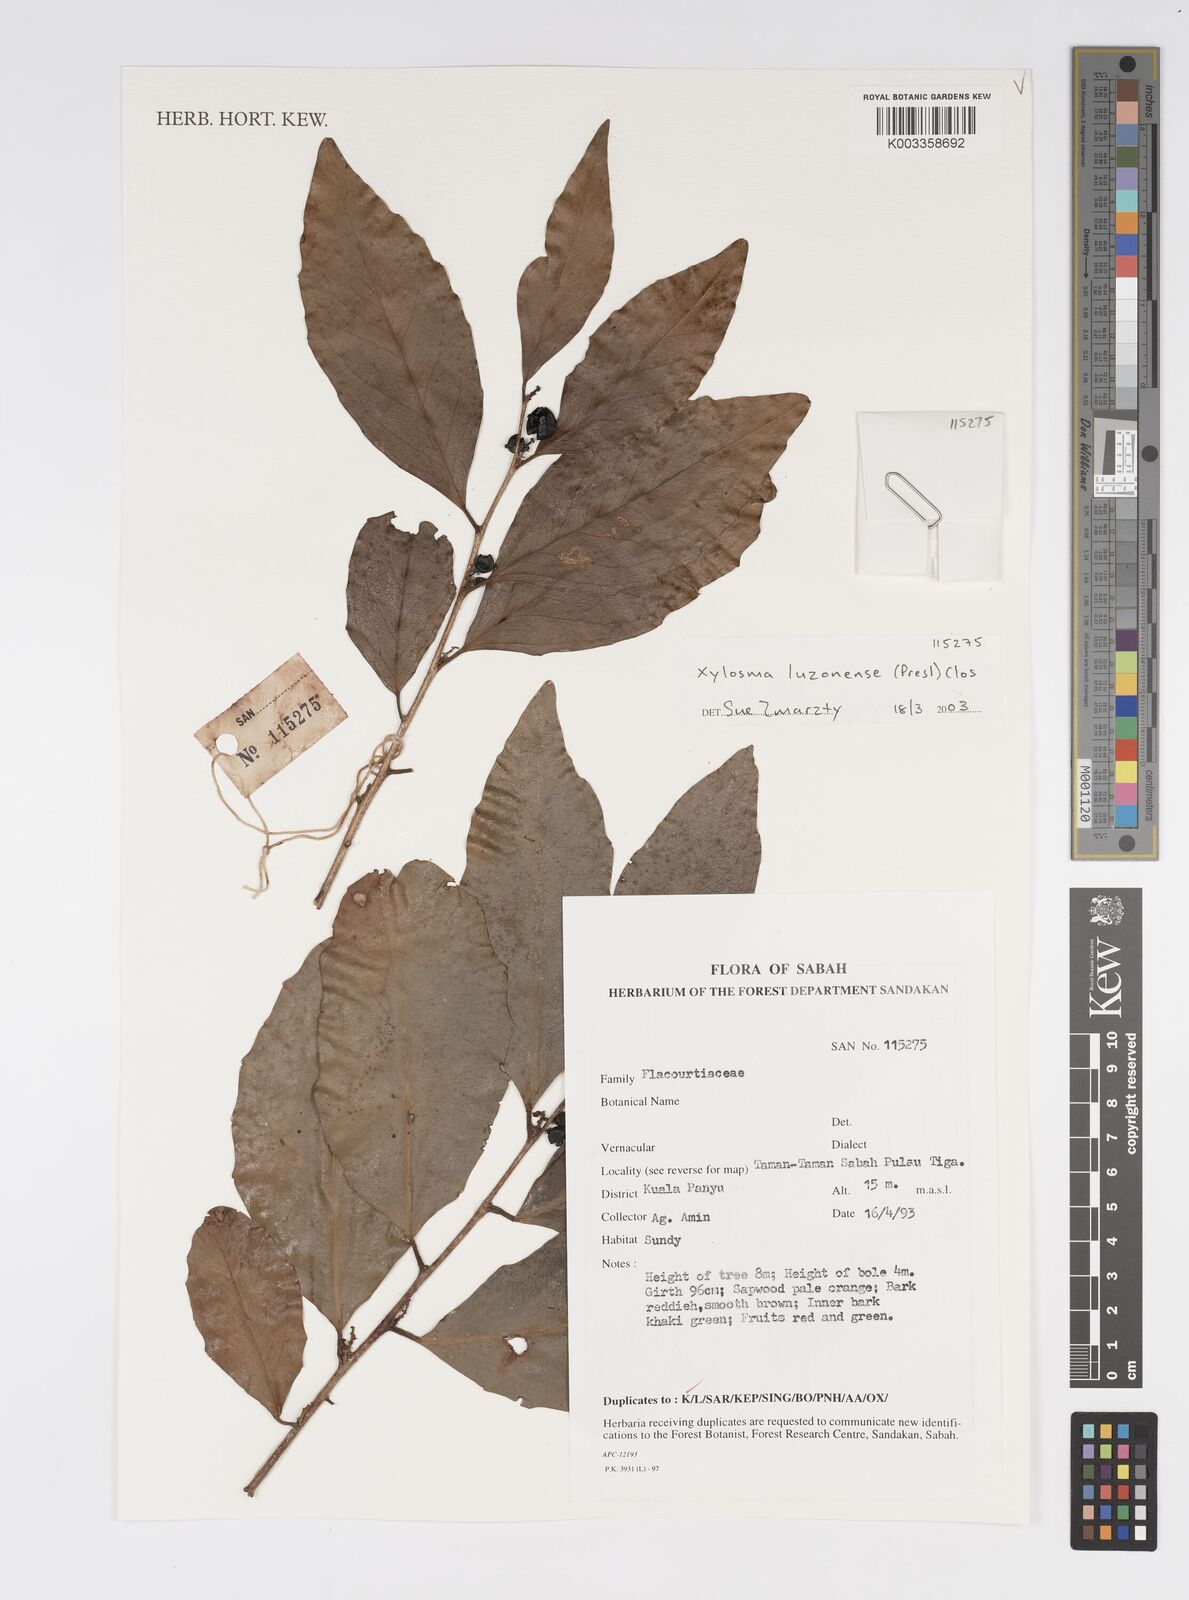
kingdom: Plantae
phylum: Tracheophyta
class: Magnoliopsida
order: Malpighiales
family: Salicaceae
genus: Xylosma
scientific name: Xylosma luzonensis
